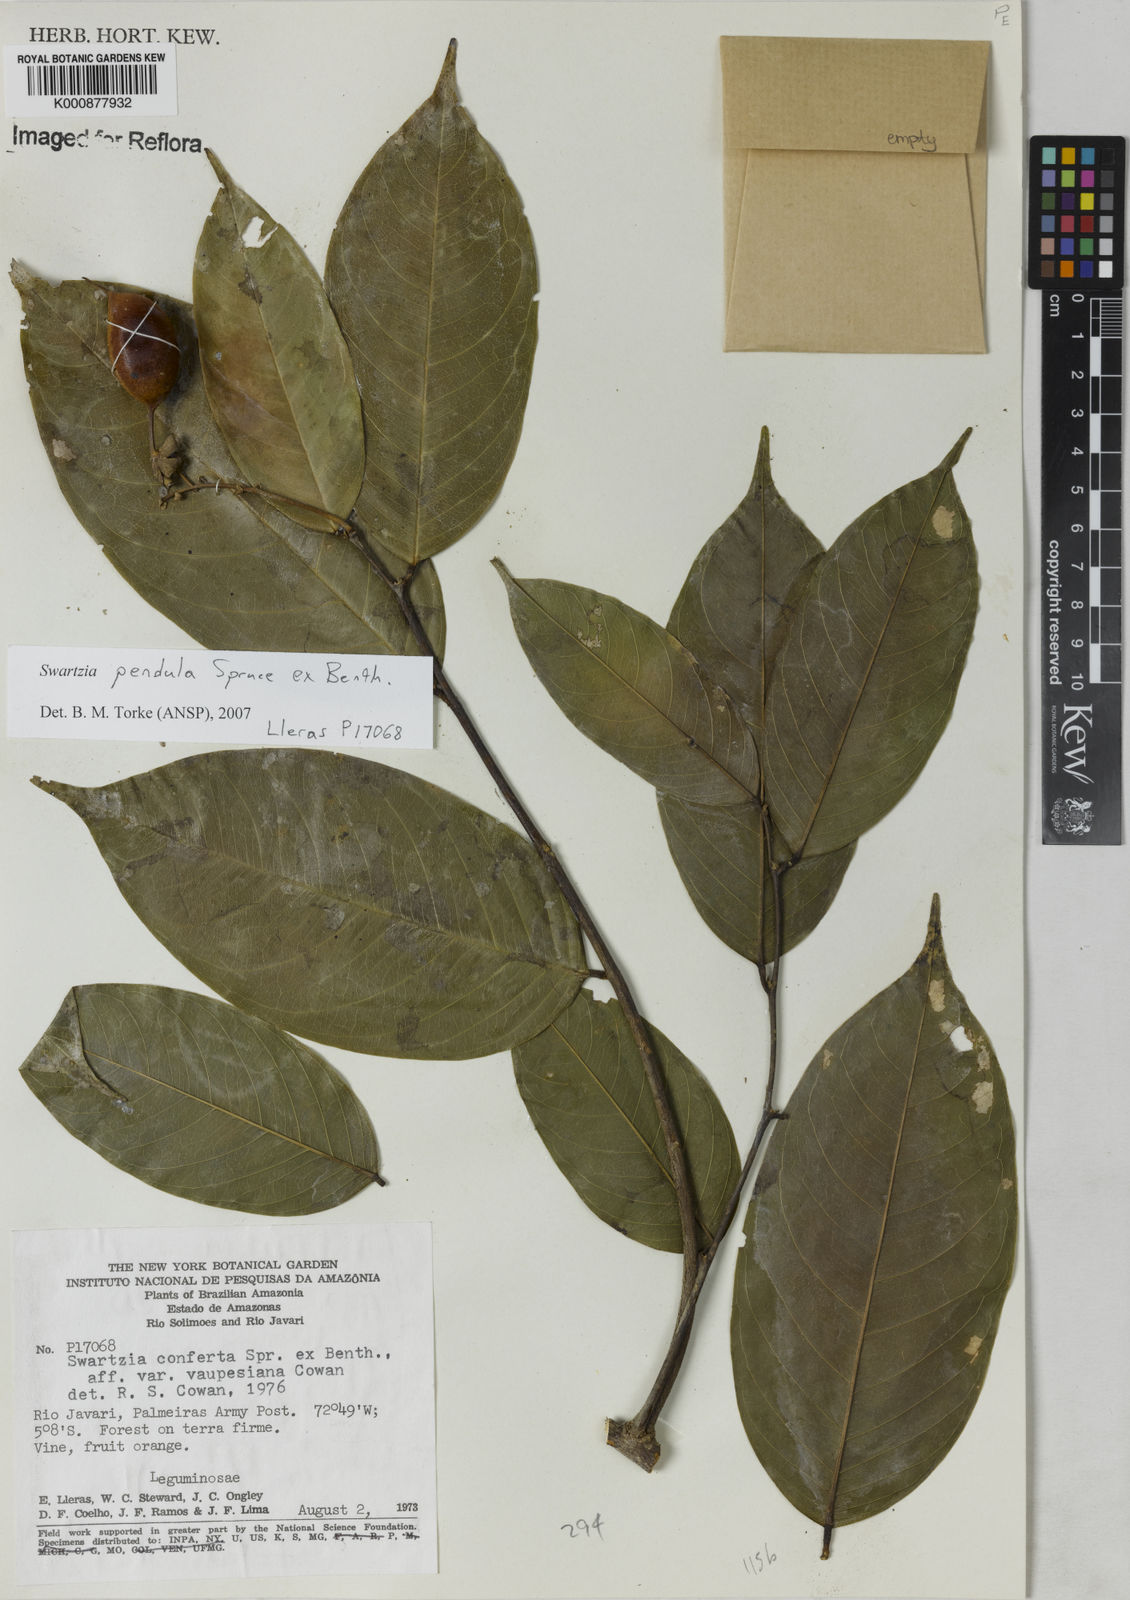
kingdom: Plantae
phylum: Tracheophyta
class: Magnoliopsida
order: Fabales
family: Fabaceae
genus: Swartzia
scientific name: Swartzia pendula
